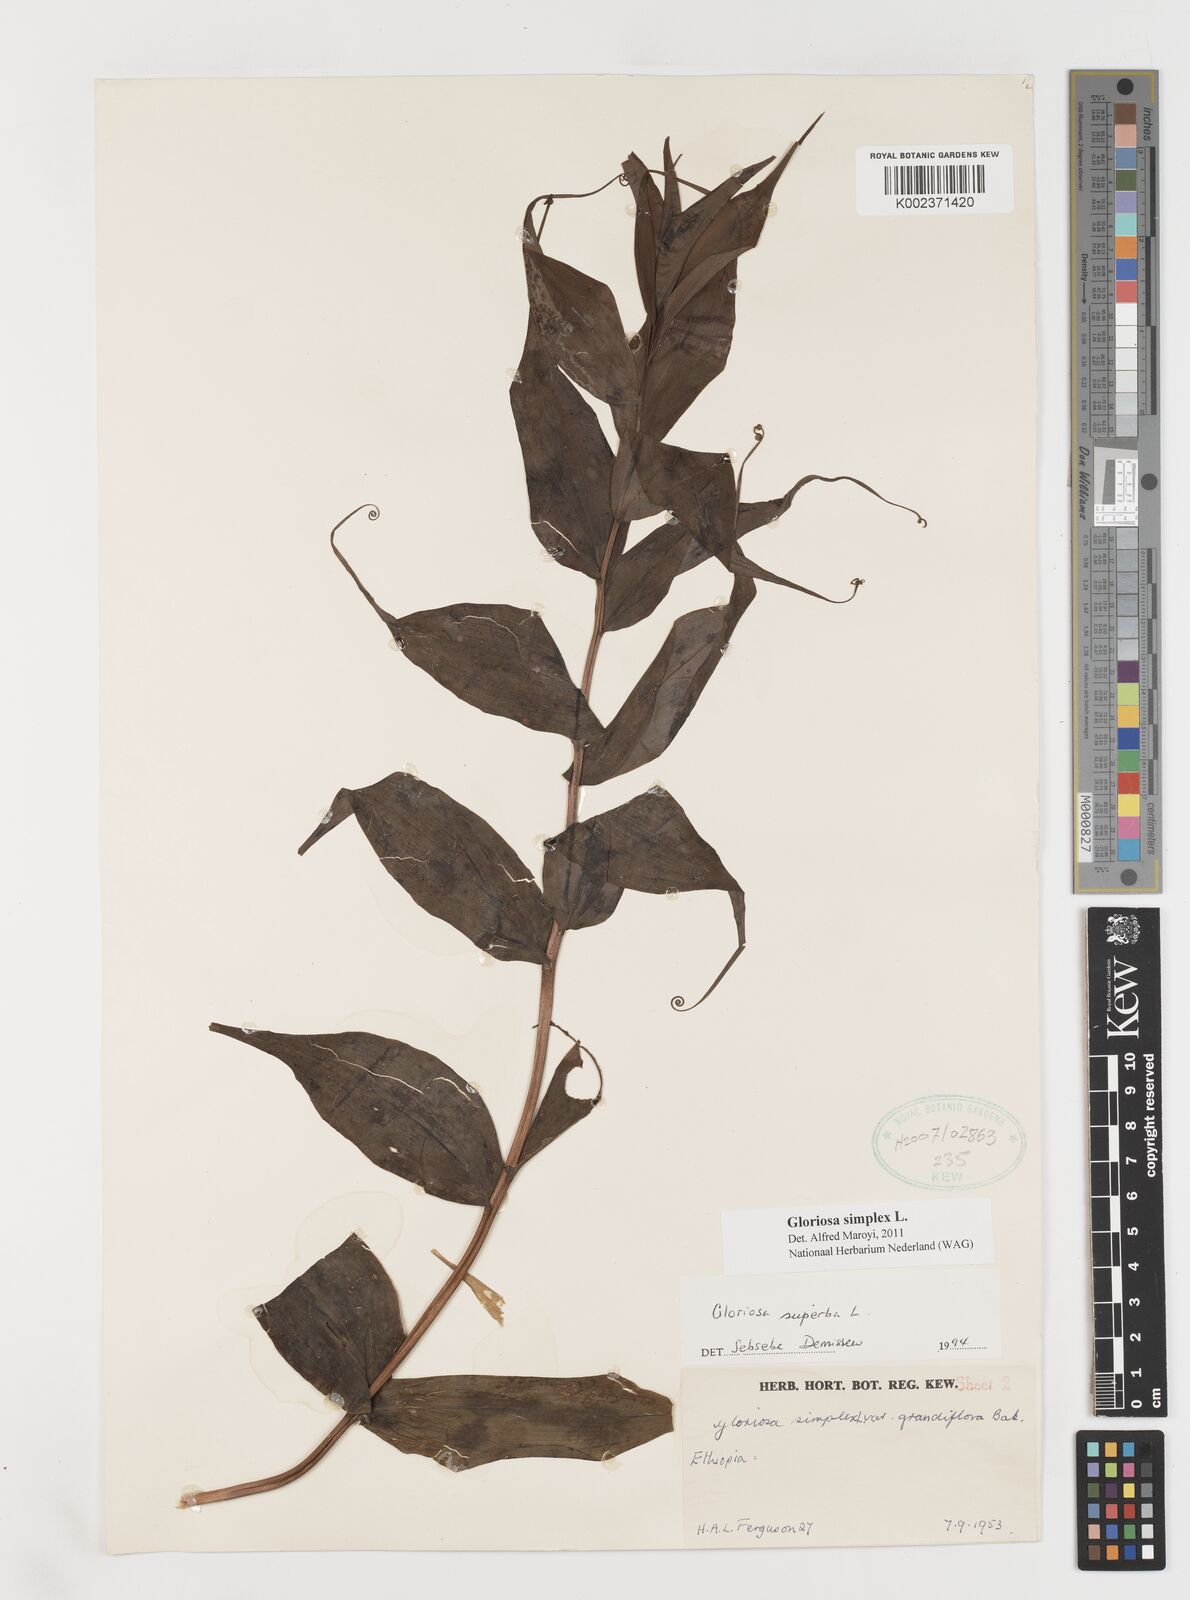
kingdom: Plantae
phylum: Tracheophyta
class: Liliopsida
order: Liliales
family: Colchicaceae
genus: Gloriosa
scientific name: Gloriosa simplex
